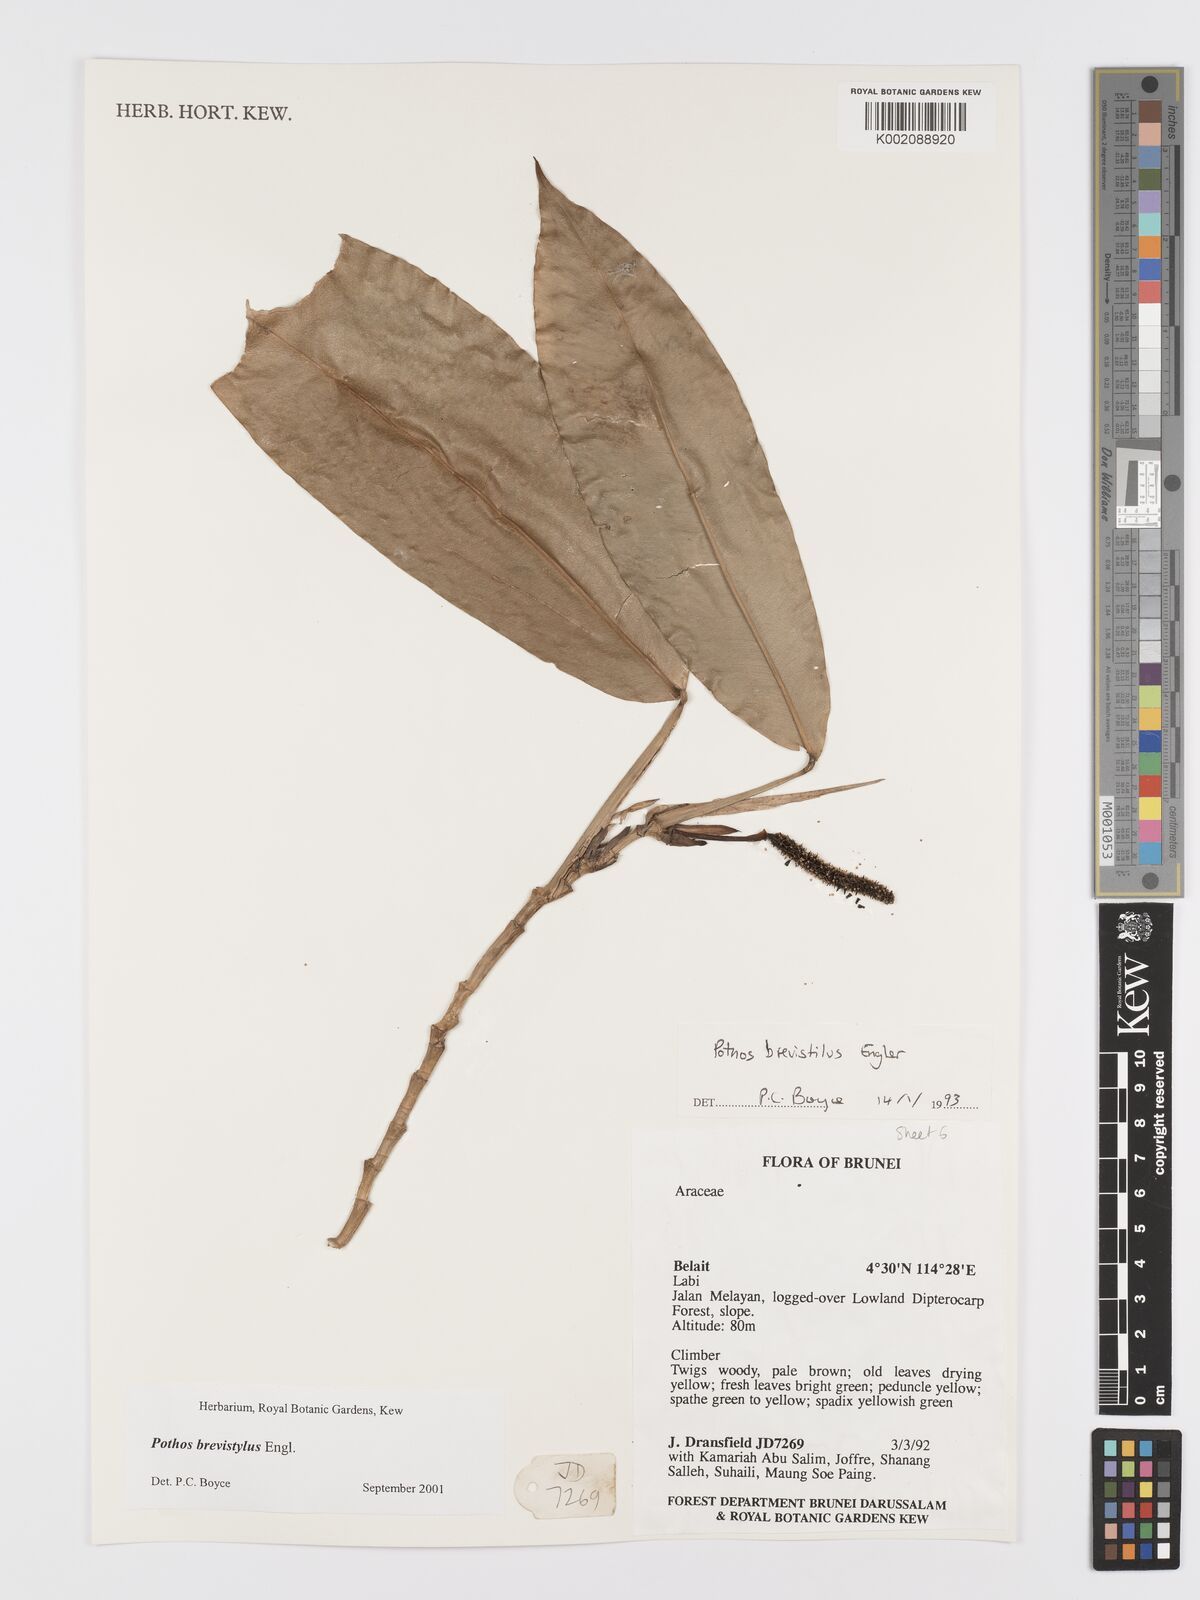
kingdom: Plantae
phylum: Tracheophyta
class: Liliopsida
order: Alismatales
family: Araceae
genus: Pothos
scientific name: Pothos brevistylus
